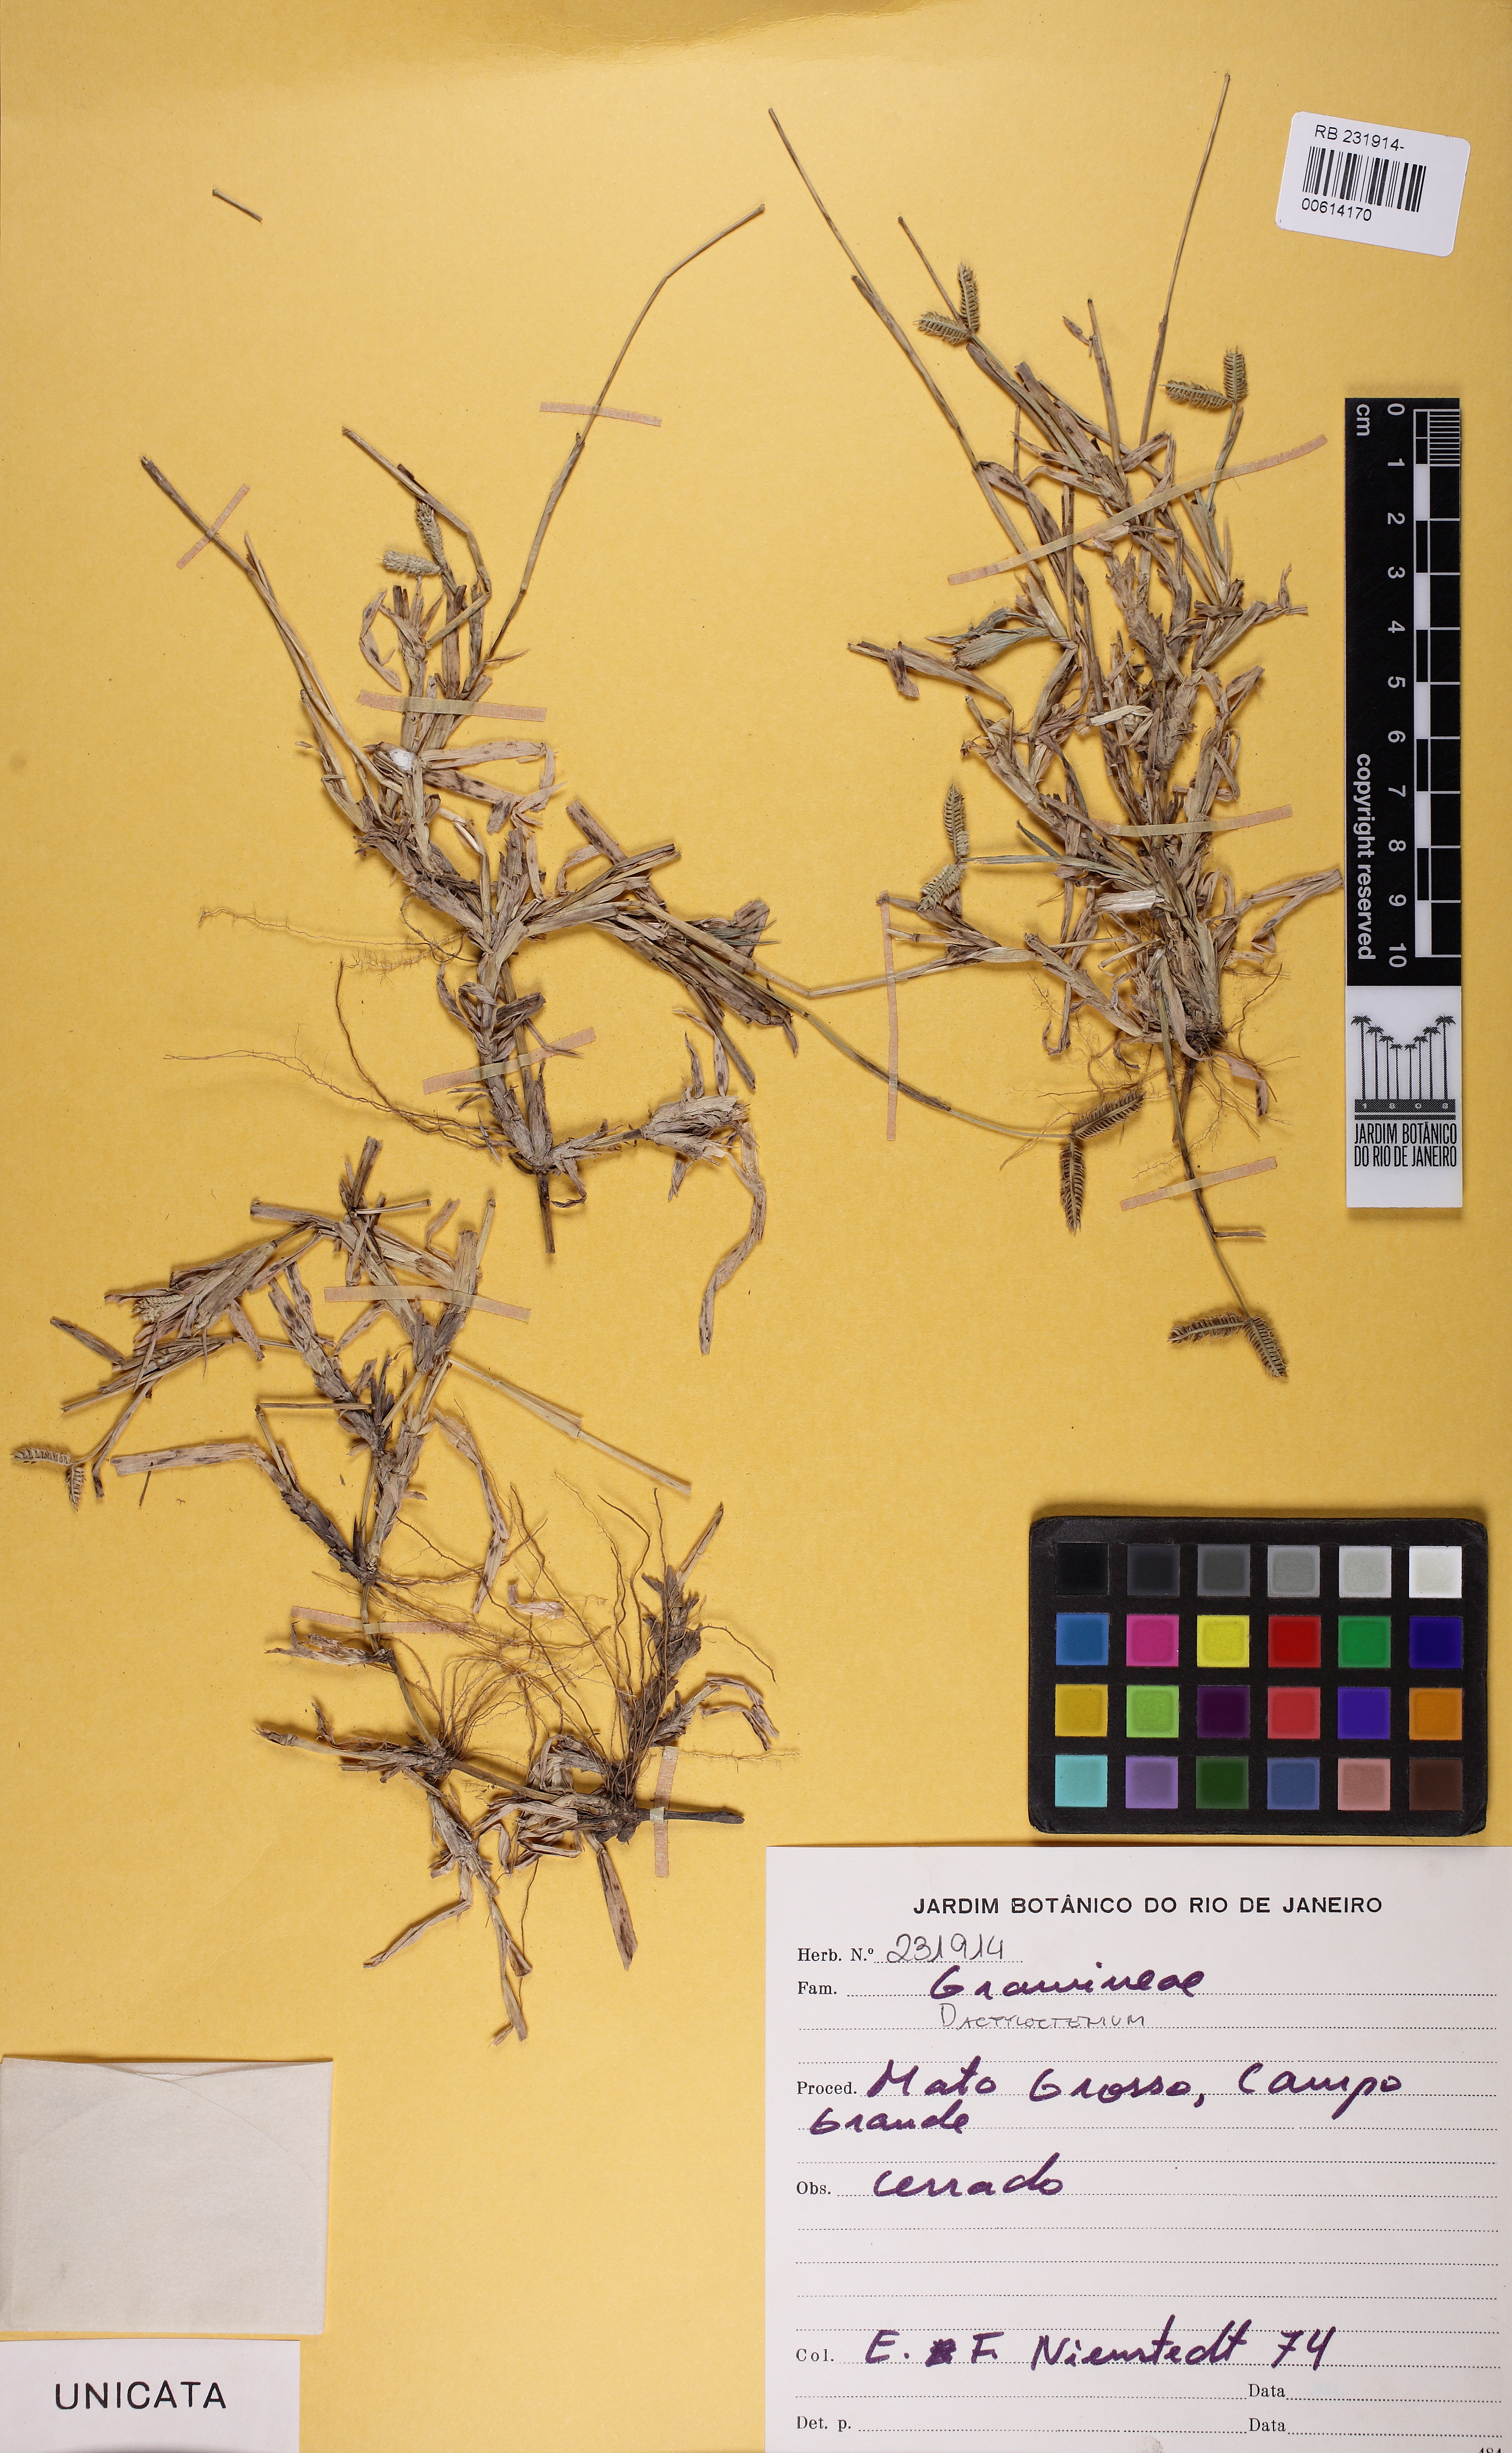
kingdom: Plantae
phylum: Tracheophyta
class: Liliopsida
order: Poales
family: Poaceae
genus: Dactyloctenium
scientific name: Dactyloctenium
